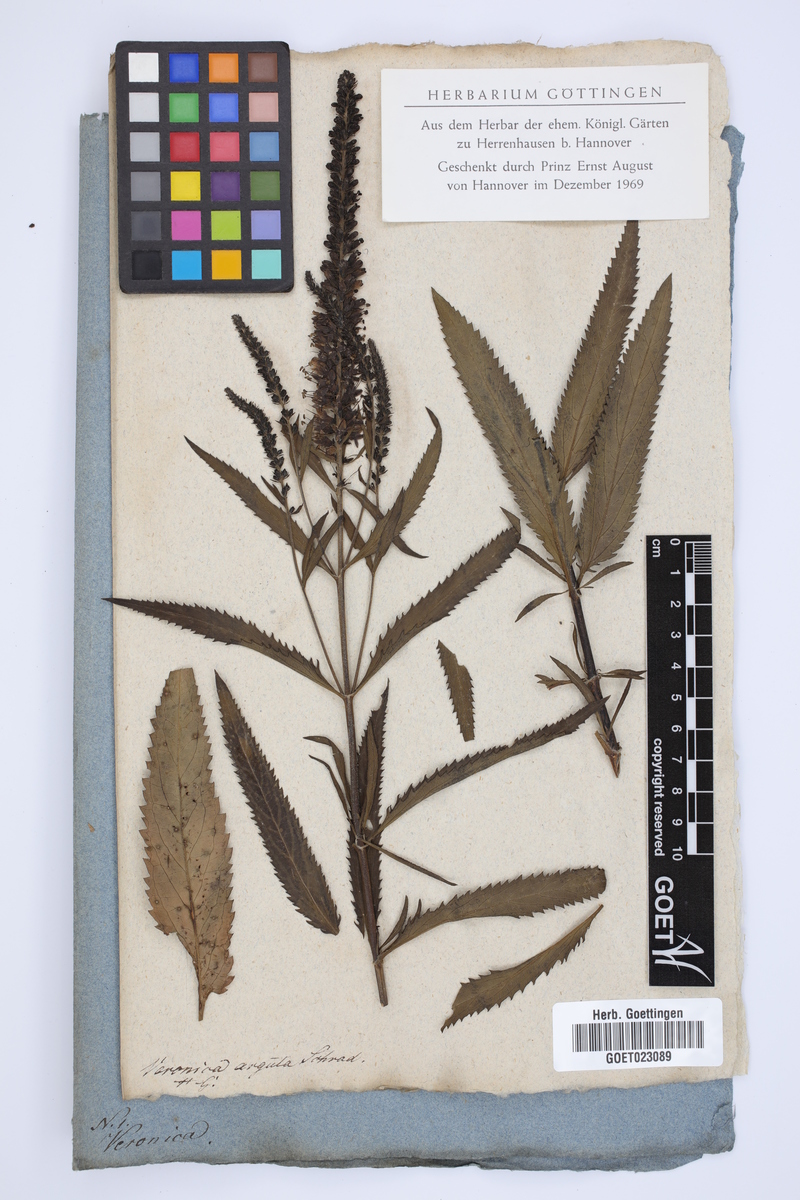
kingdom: Plantae
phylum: Tracheophyta
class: Magnoliopsida
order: Lamiales
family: Plantaginaceae
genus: Veronica
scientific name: Veronica maritima
